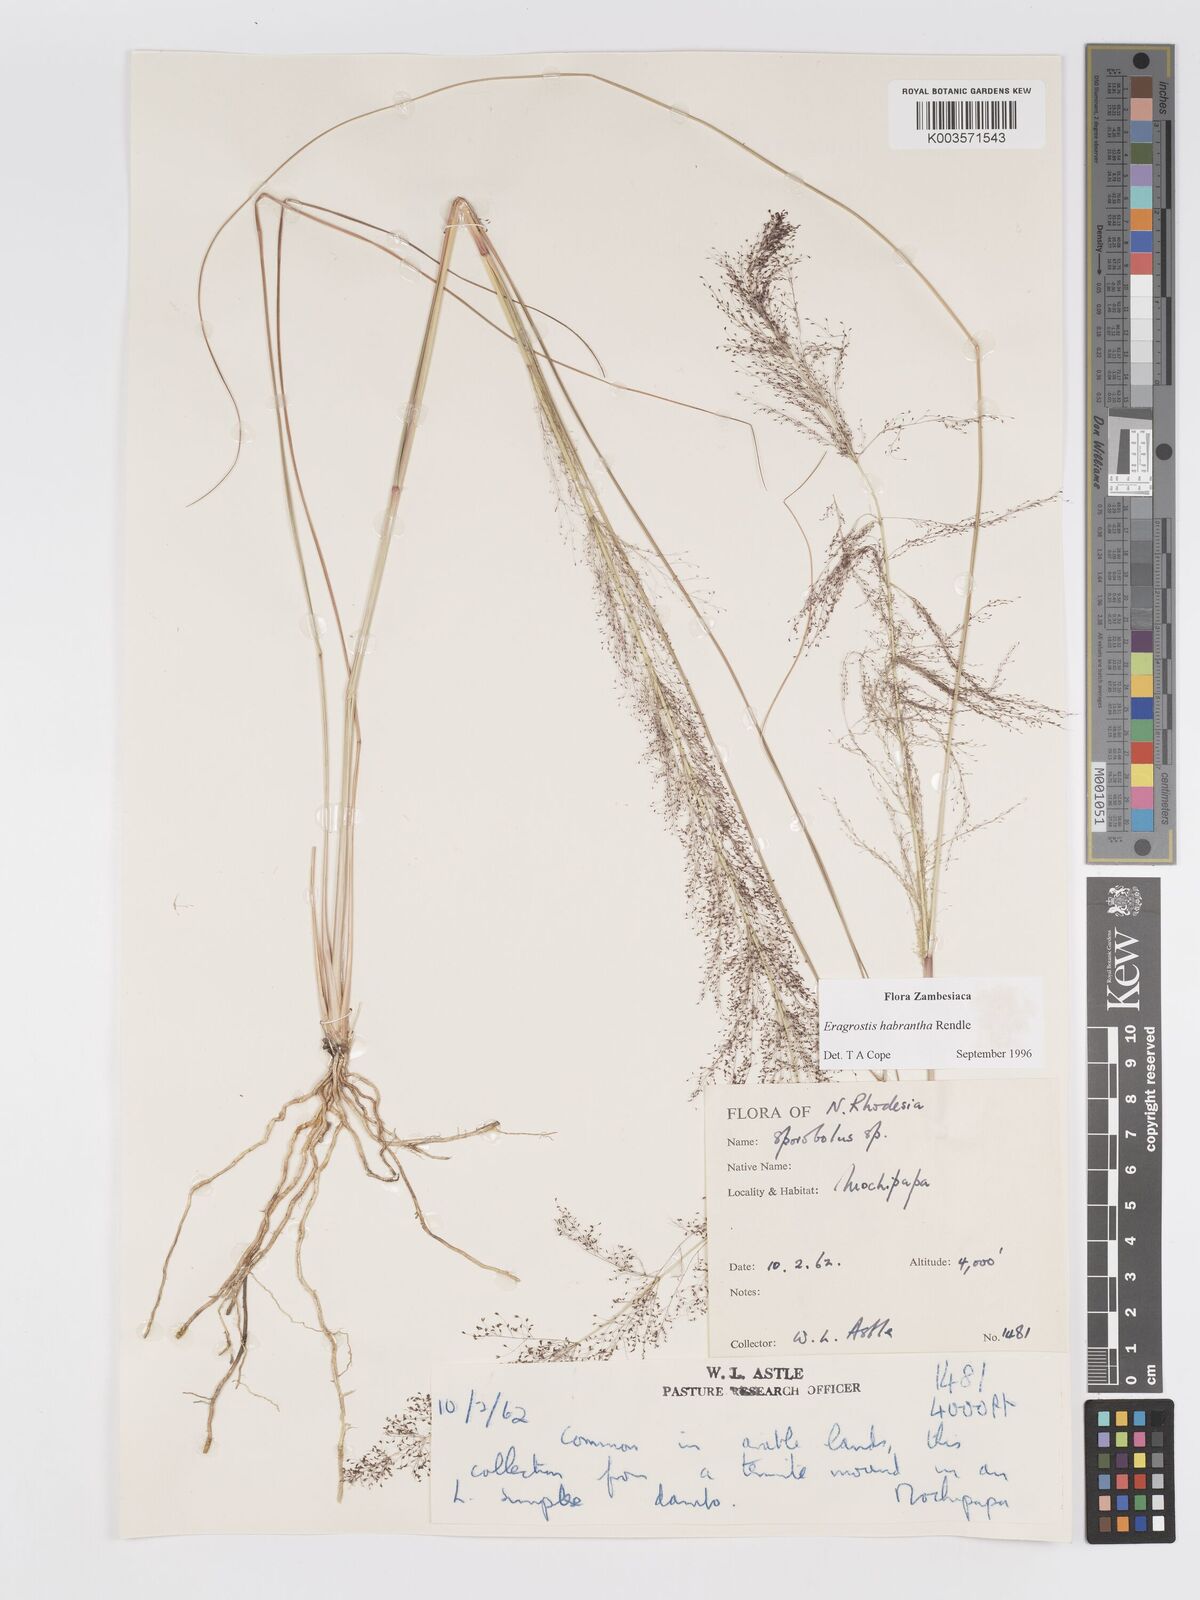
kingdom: Plantae
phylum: Tracheophyta
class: Liliopsida
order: Poales
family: Poaceae
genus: Eragrostis
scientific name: Eragrostis habrantha
